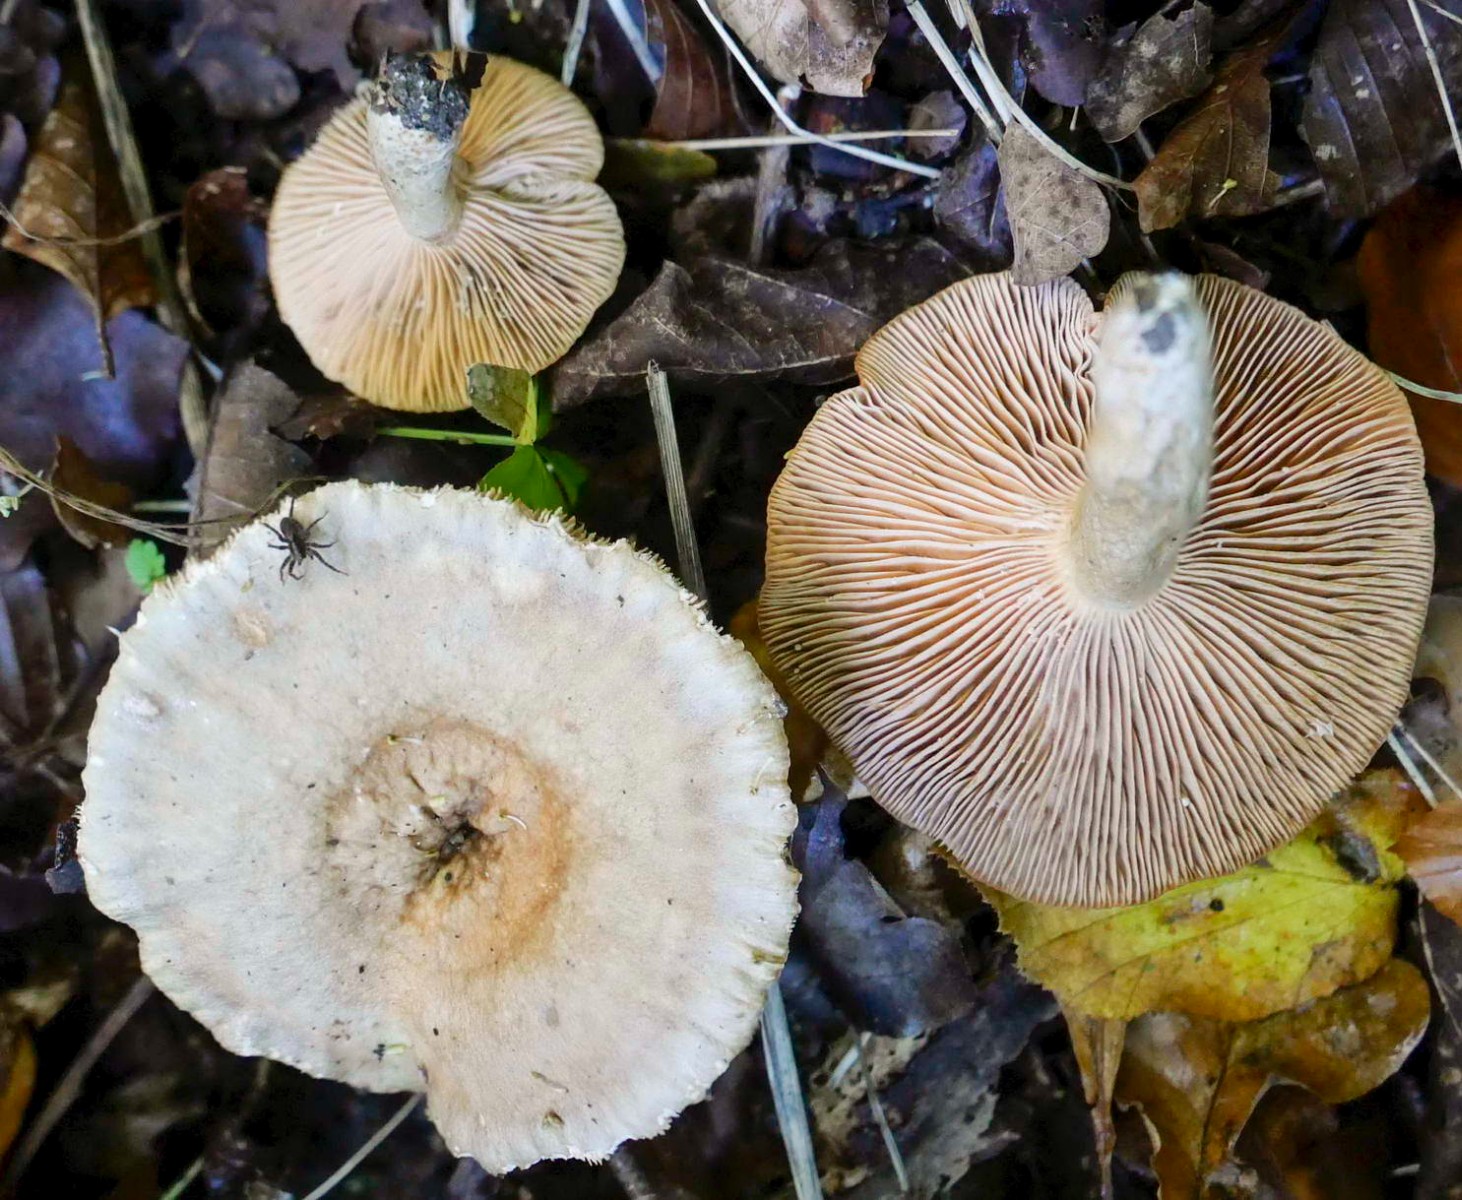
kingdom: Fungi
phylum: Basidiomycota
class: Agaricomycetes
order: Russulales
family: Russulaceae
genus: Lactarius
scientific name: Lactarius pyrogalus
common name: hassel-mælkehat
